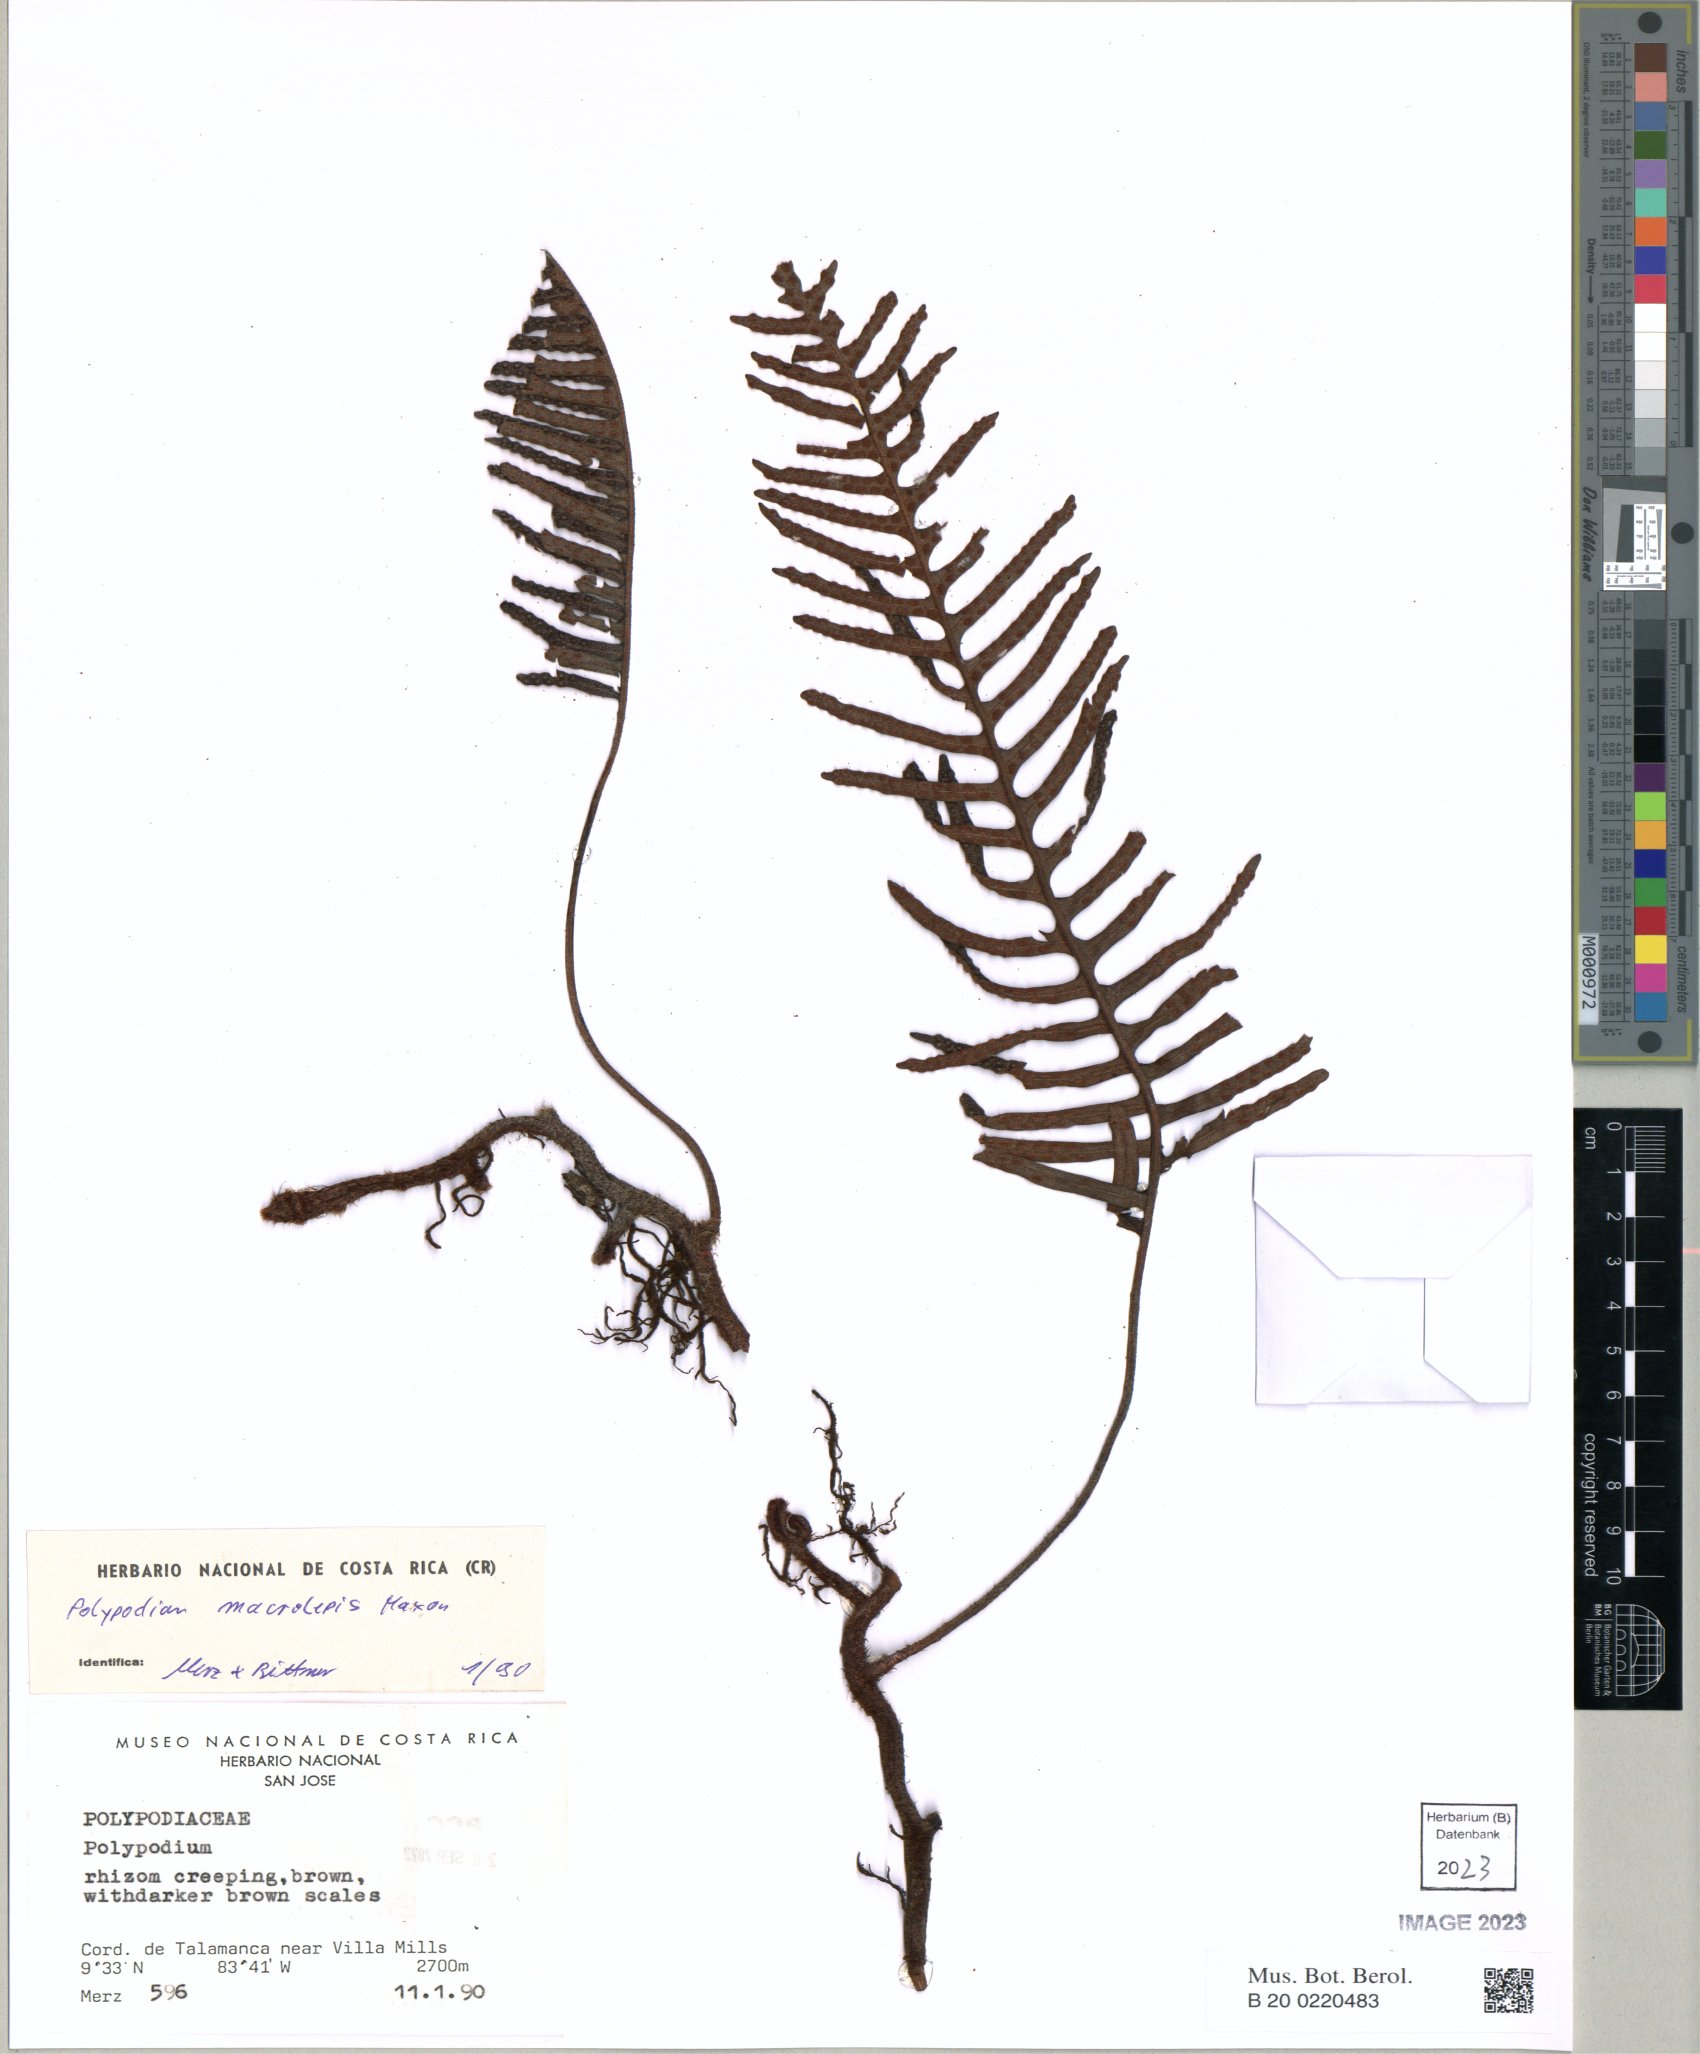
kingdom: Plantae
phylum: Tracheophyta
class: Polypodiopsida
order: Polypodiales
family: Polypodiaceae
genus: Pleopeltis
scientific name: Pleopeltis macrolepis
